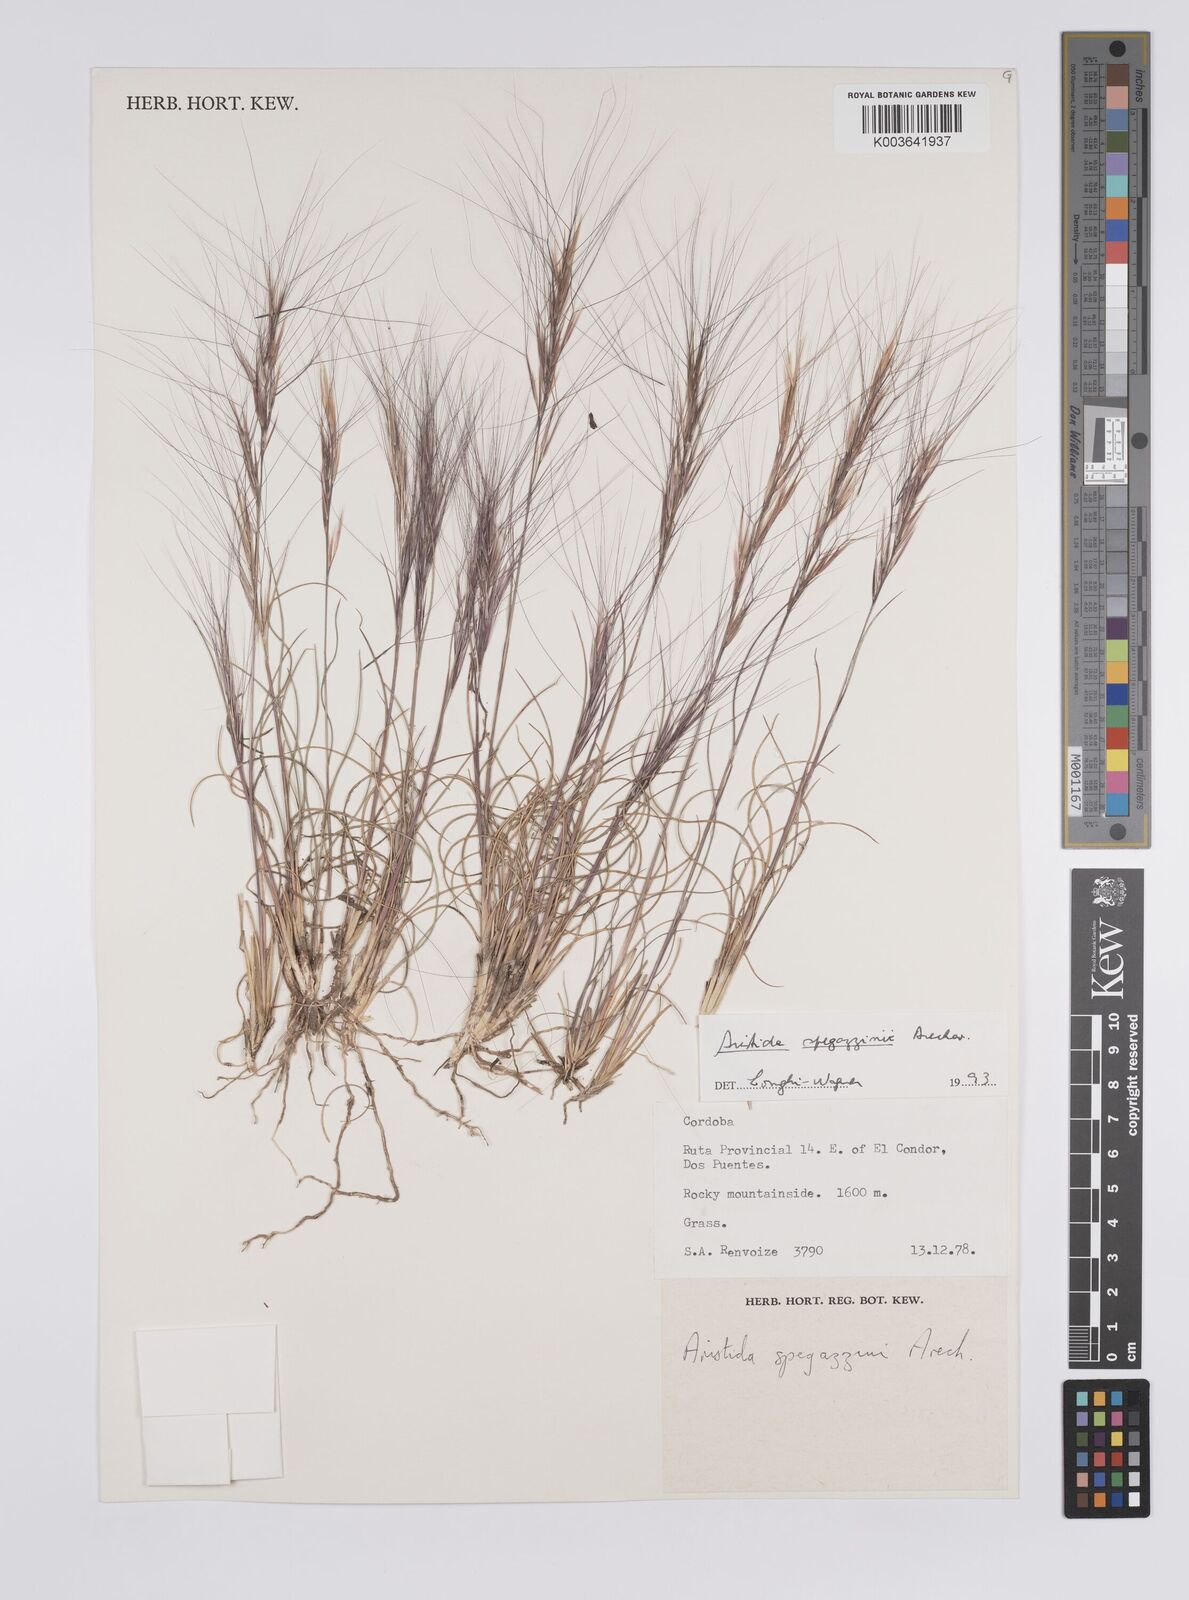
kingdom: Plantae
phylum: Tracheophyta
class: Liliopsida
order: Poales
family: Poaceae
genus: Aristida
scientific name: Aristida spegazzinii
